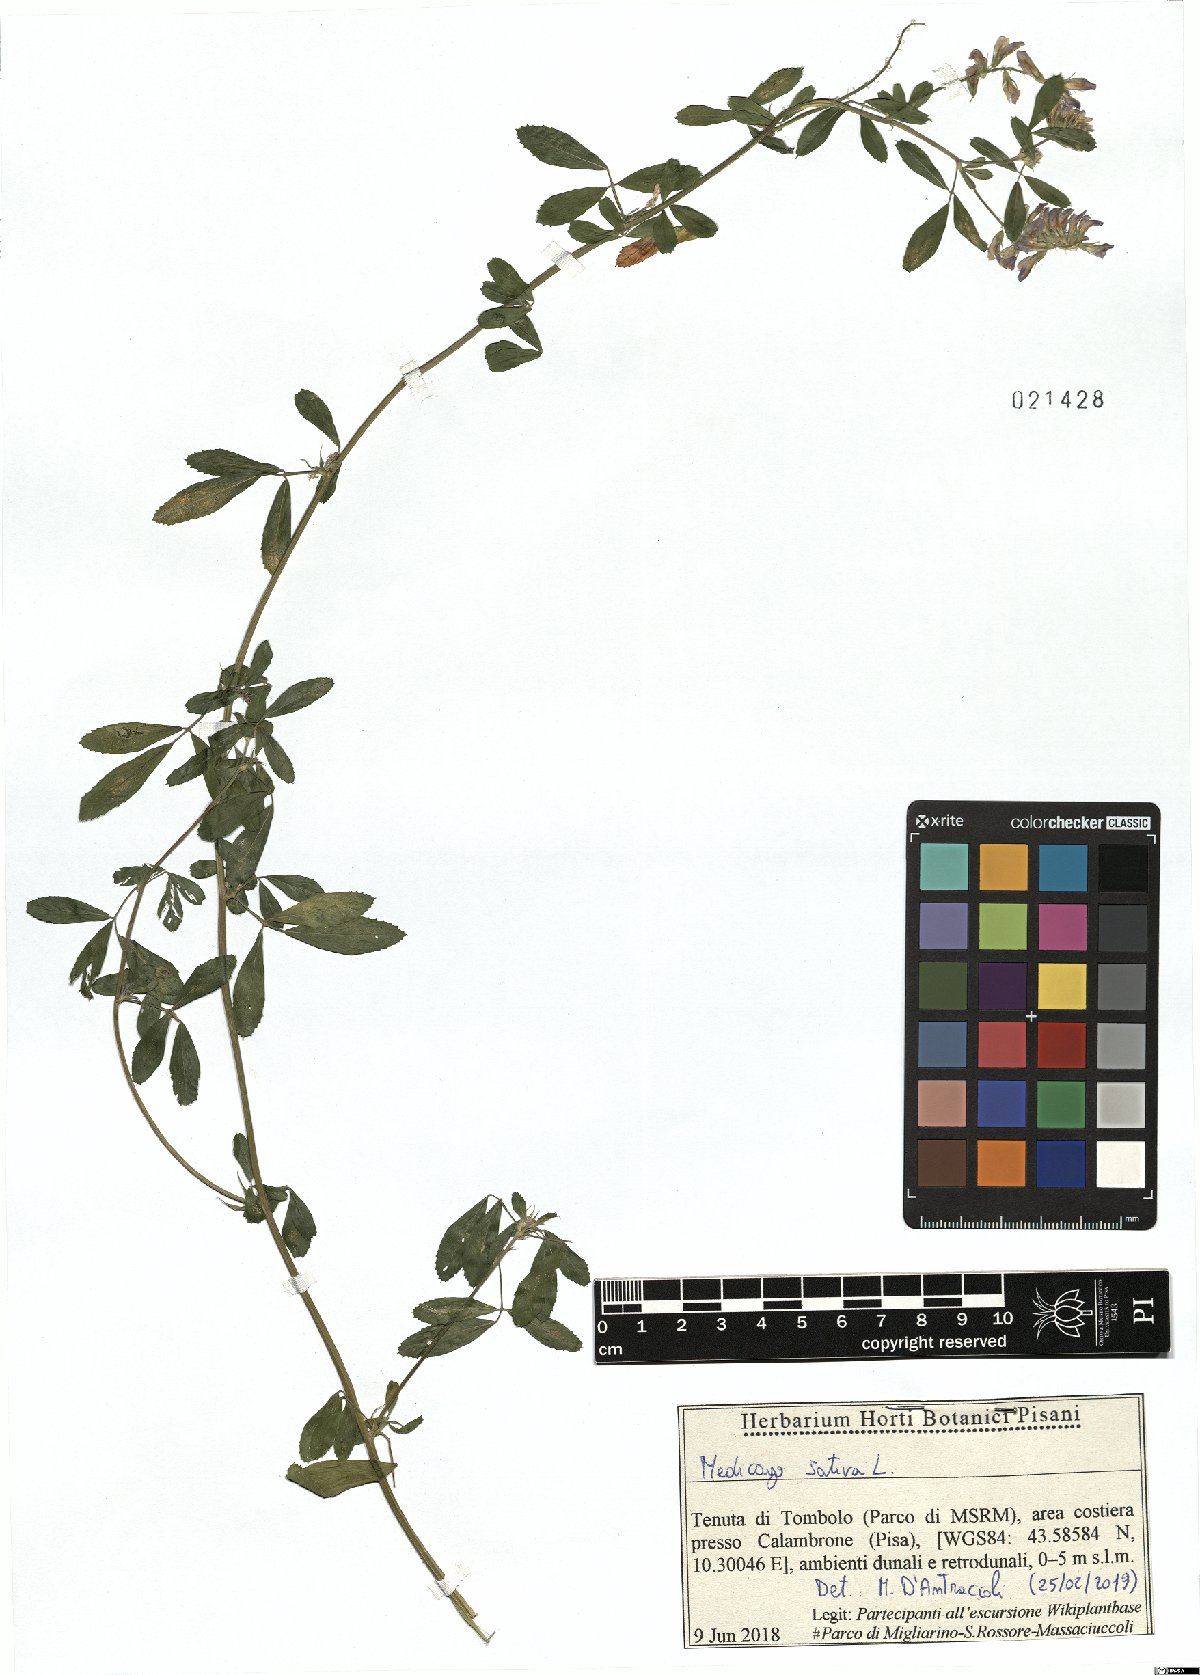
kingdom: Plantae
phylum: Tracheophyta
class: Magnoliopsida
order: Fabales
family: Fabaceae
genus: Medicago
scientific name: Medicago sativa
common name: Alfalfa
